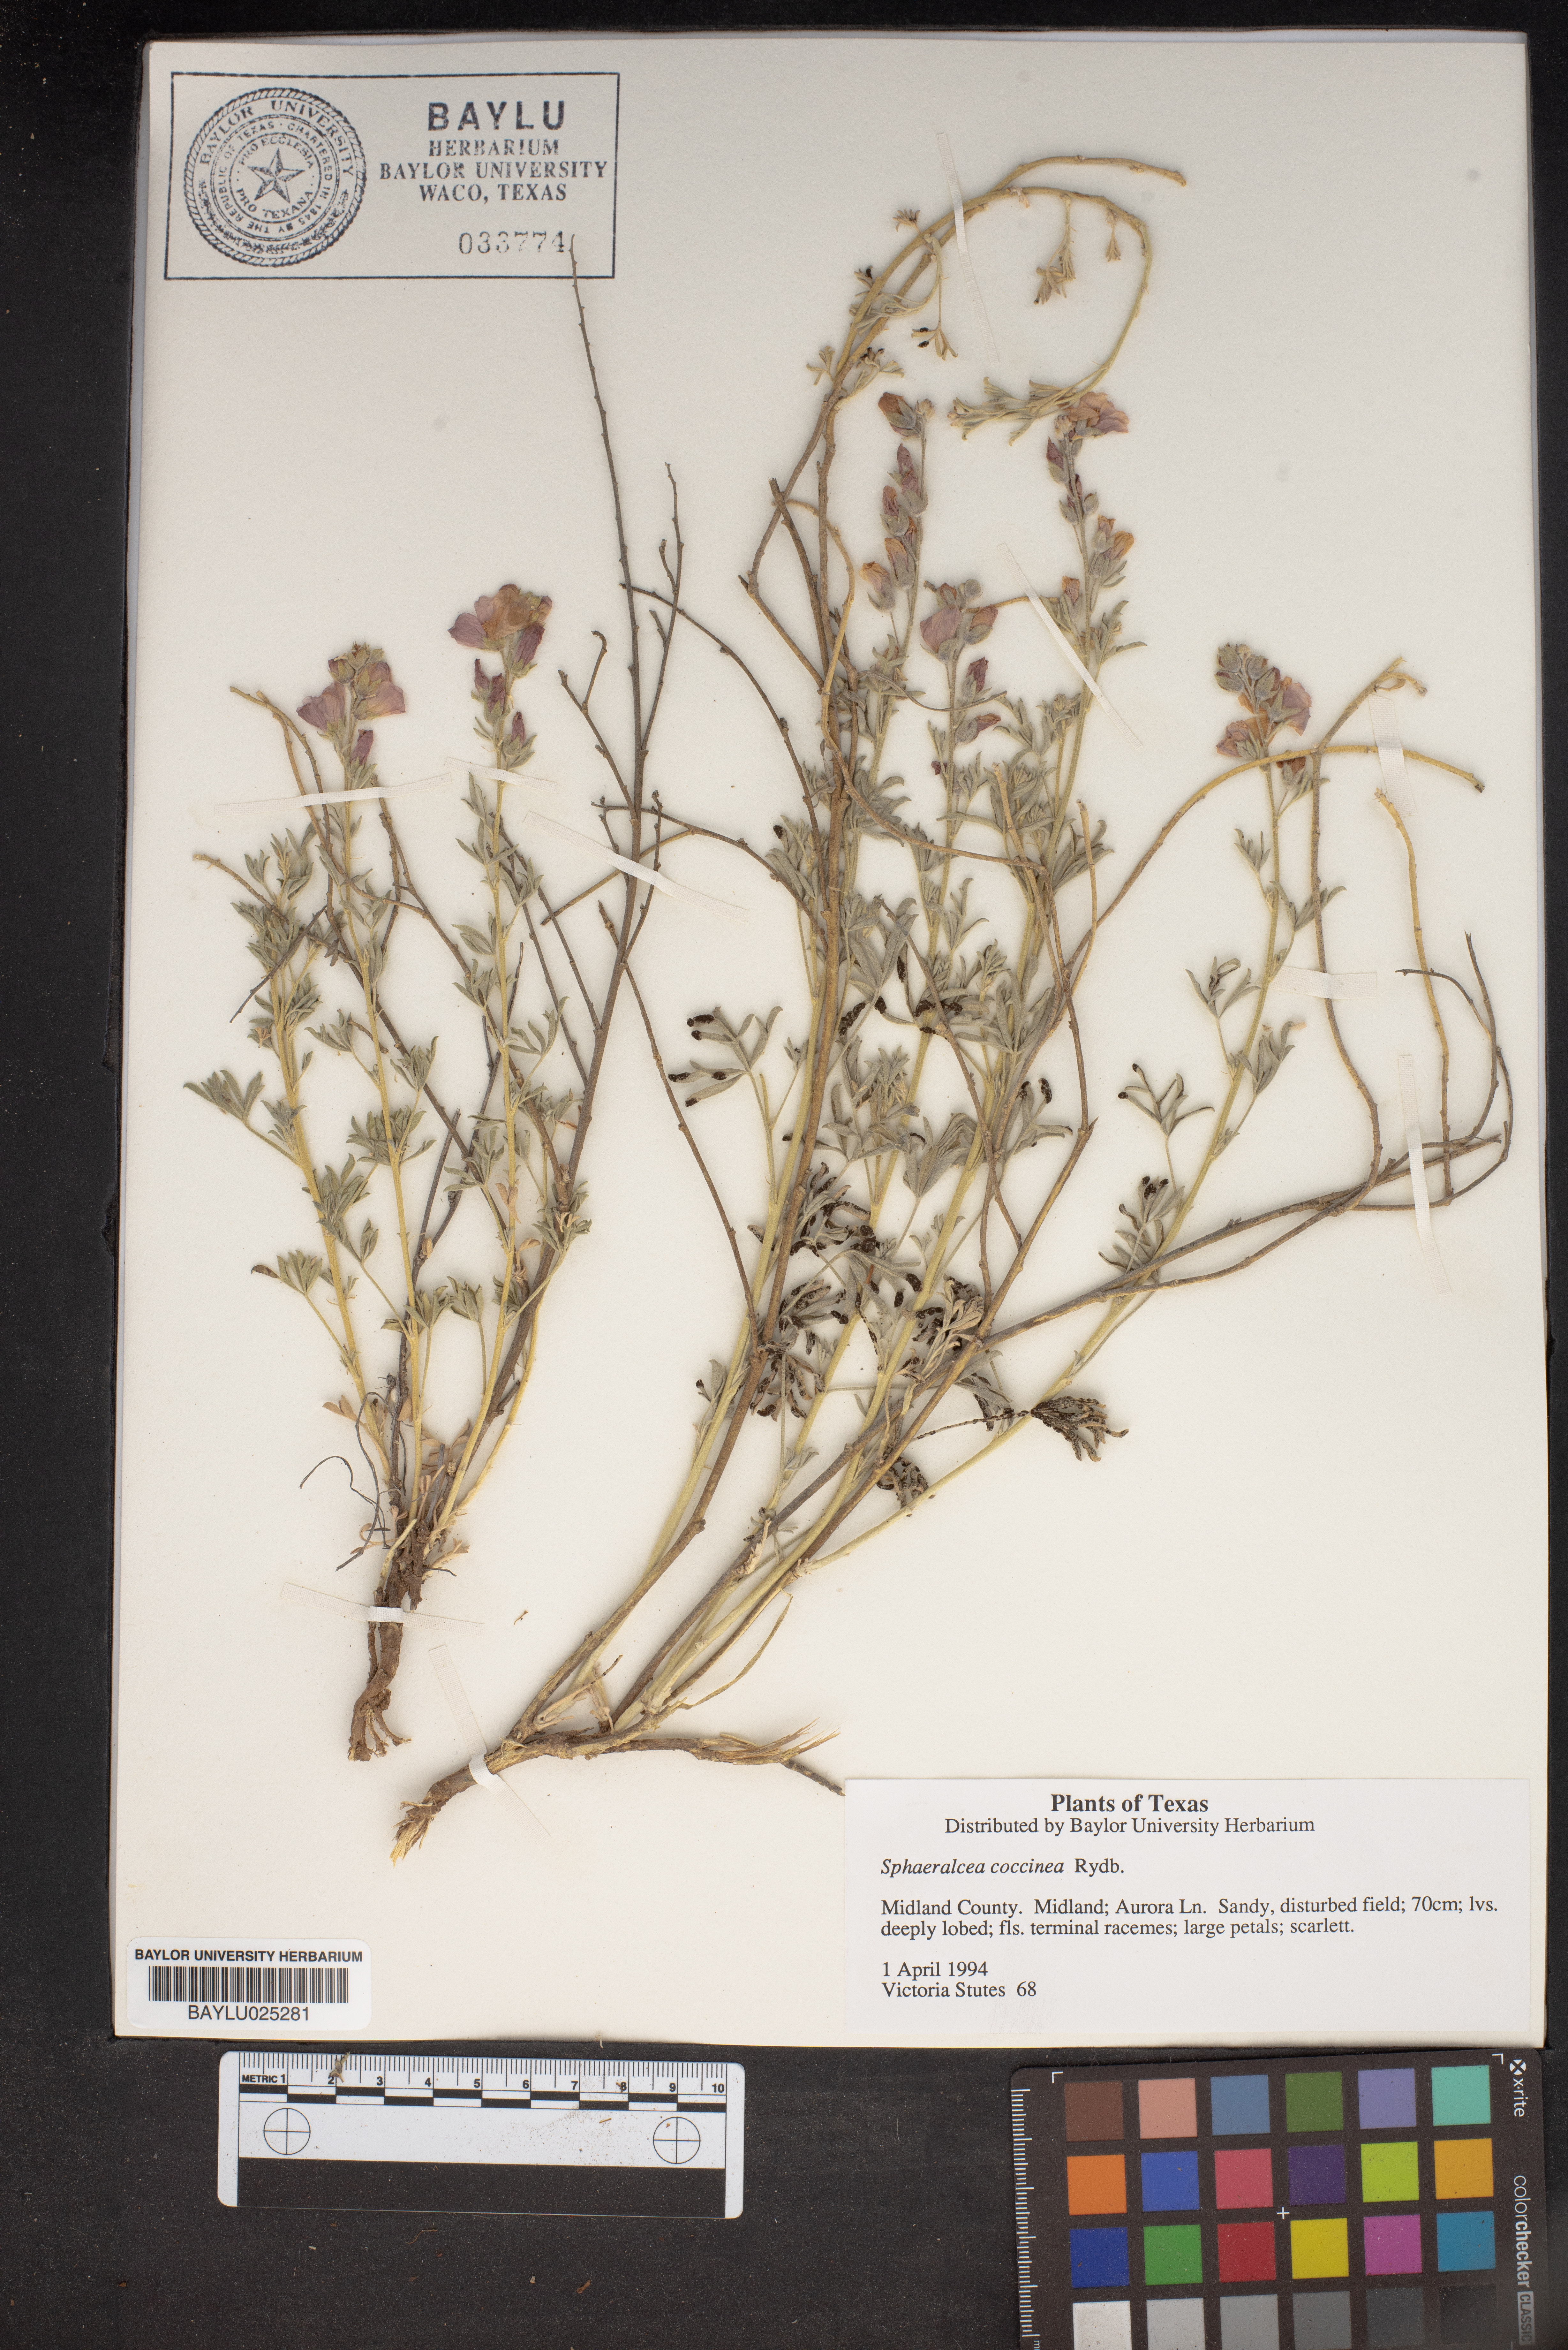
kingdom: Plantae
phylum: Tracheophyta
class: Magnoliopsida
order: Malvales
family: Malvaceae
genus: Sphaeralcea
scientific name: Sphaeralcea coccinea
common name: Moss-rose
